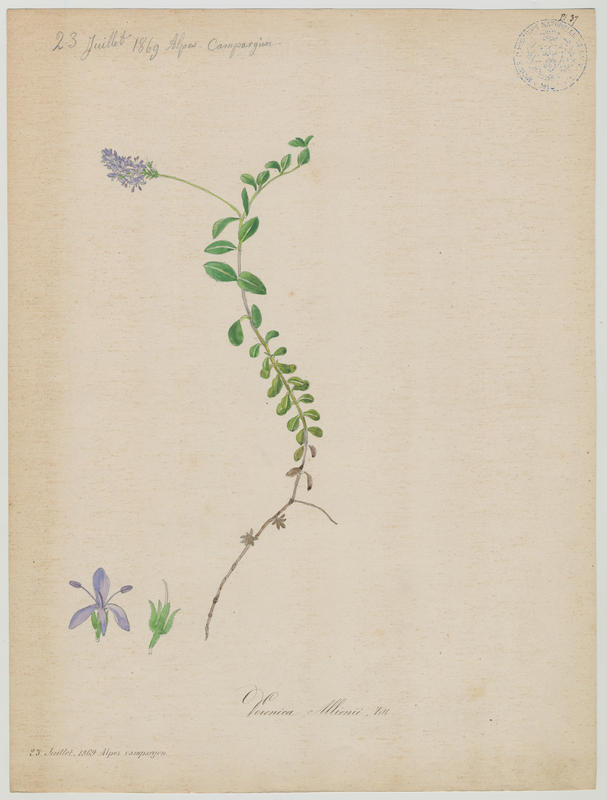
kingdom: Plantae
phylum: Tracheophyta
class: Magnoliopsida
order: Lamiales
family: Plantaginaceae
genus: Veronica
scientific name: Veronica allionii
